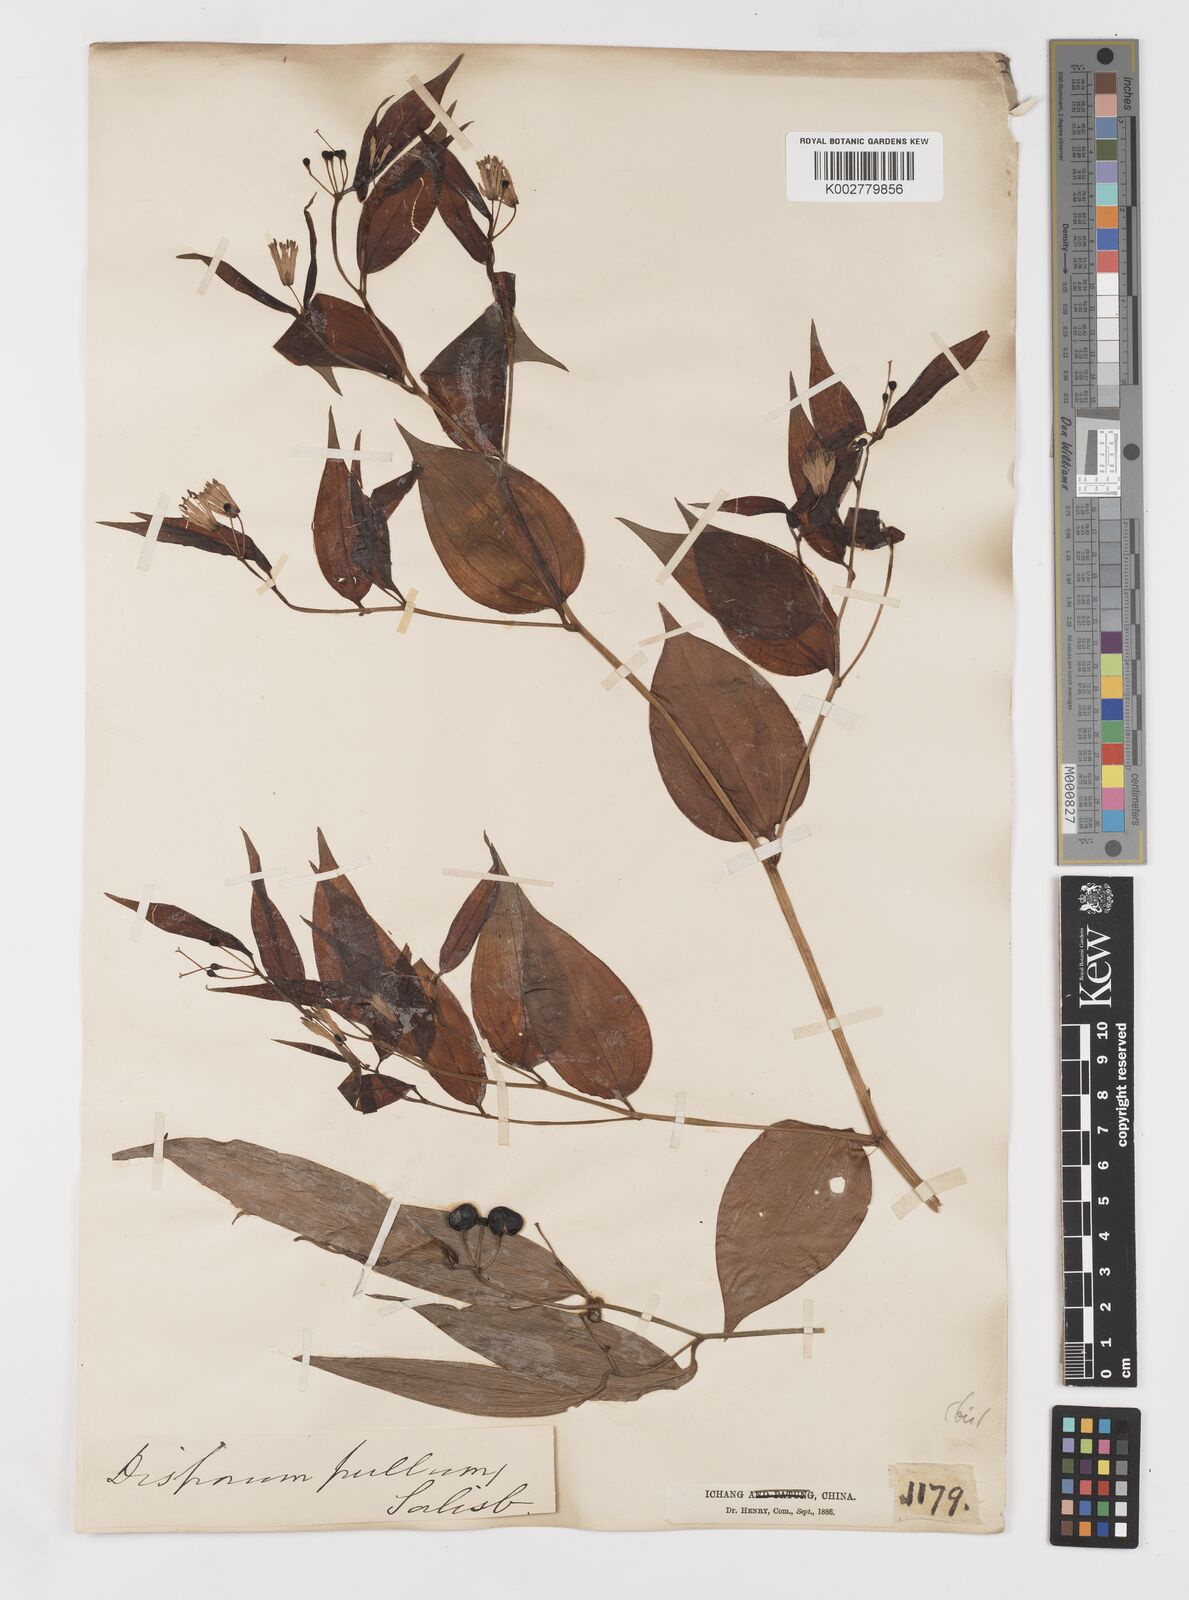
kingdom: Plantae
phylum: Tracheophyta
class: Liliopsida
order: Liliales
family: Colchicaceae
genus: Disporum
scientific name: Disporum sessile
